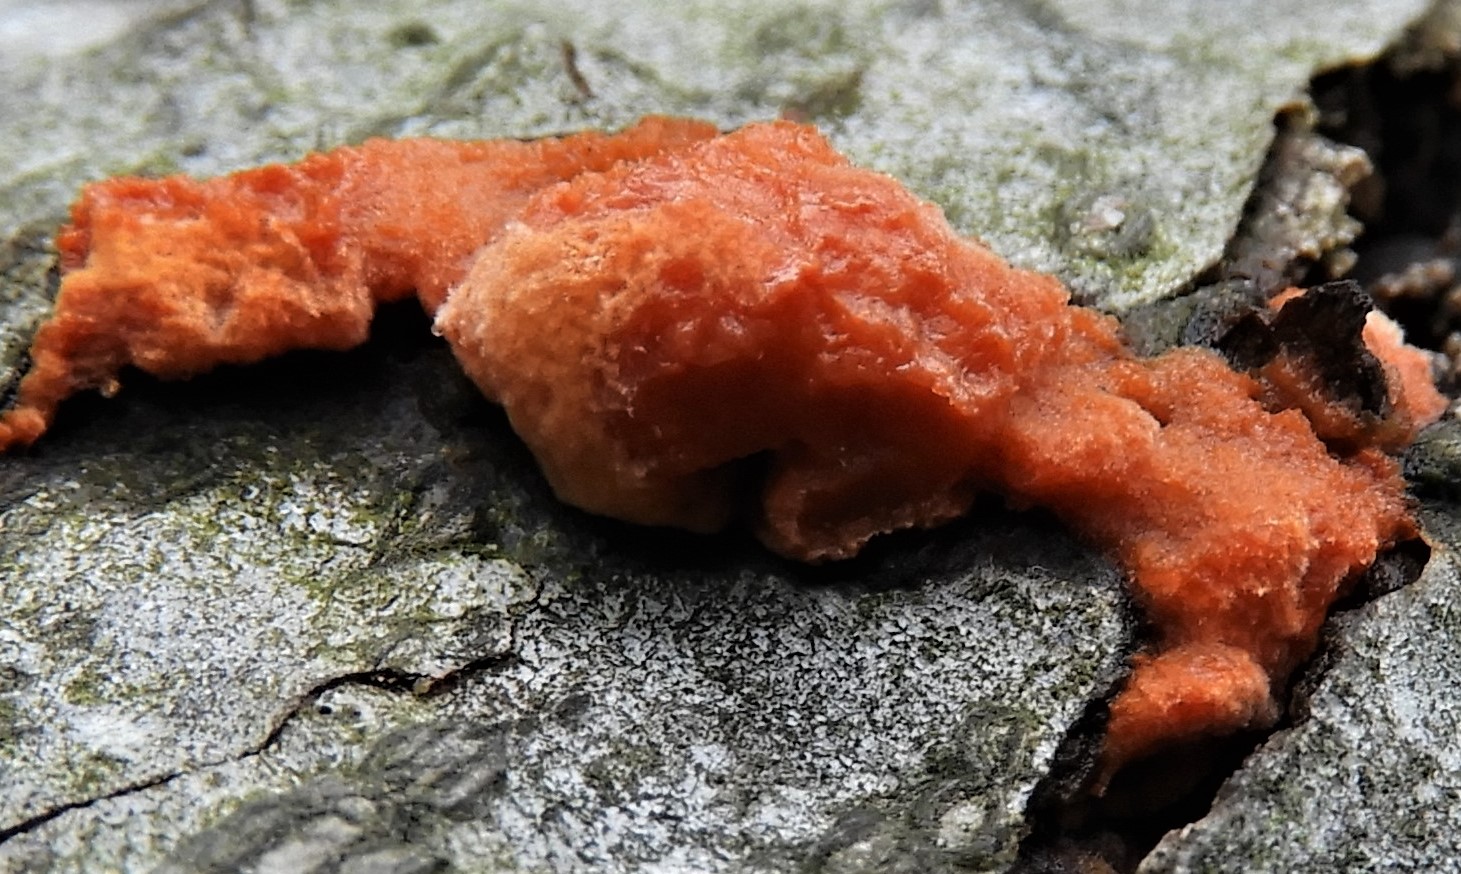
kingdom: Fungi
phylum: Basidiomycota
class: Agaricomycetes
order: Polyporales
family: Polyporaceae
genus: Trametes
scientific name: Trametes cinnabarina
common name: cinnoberporesvamp
